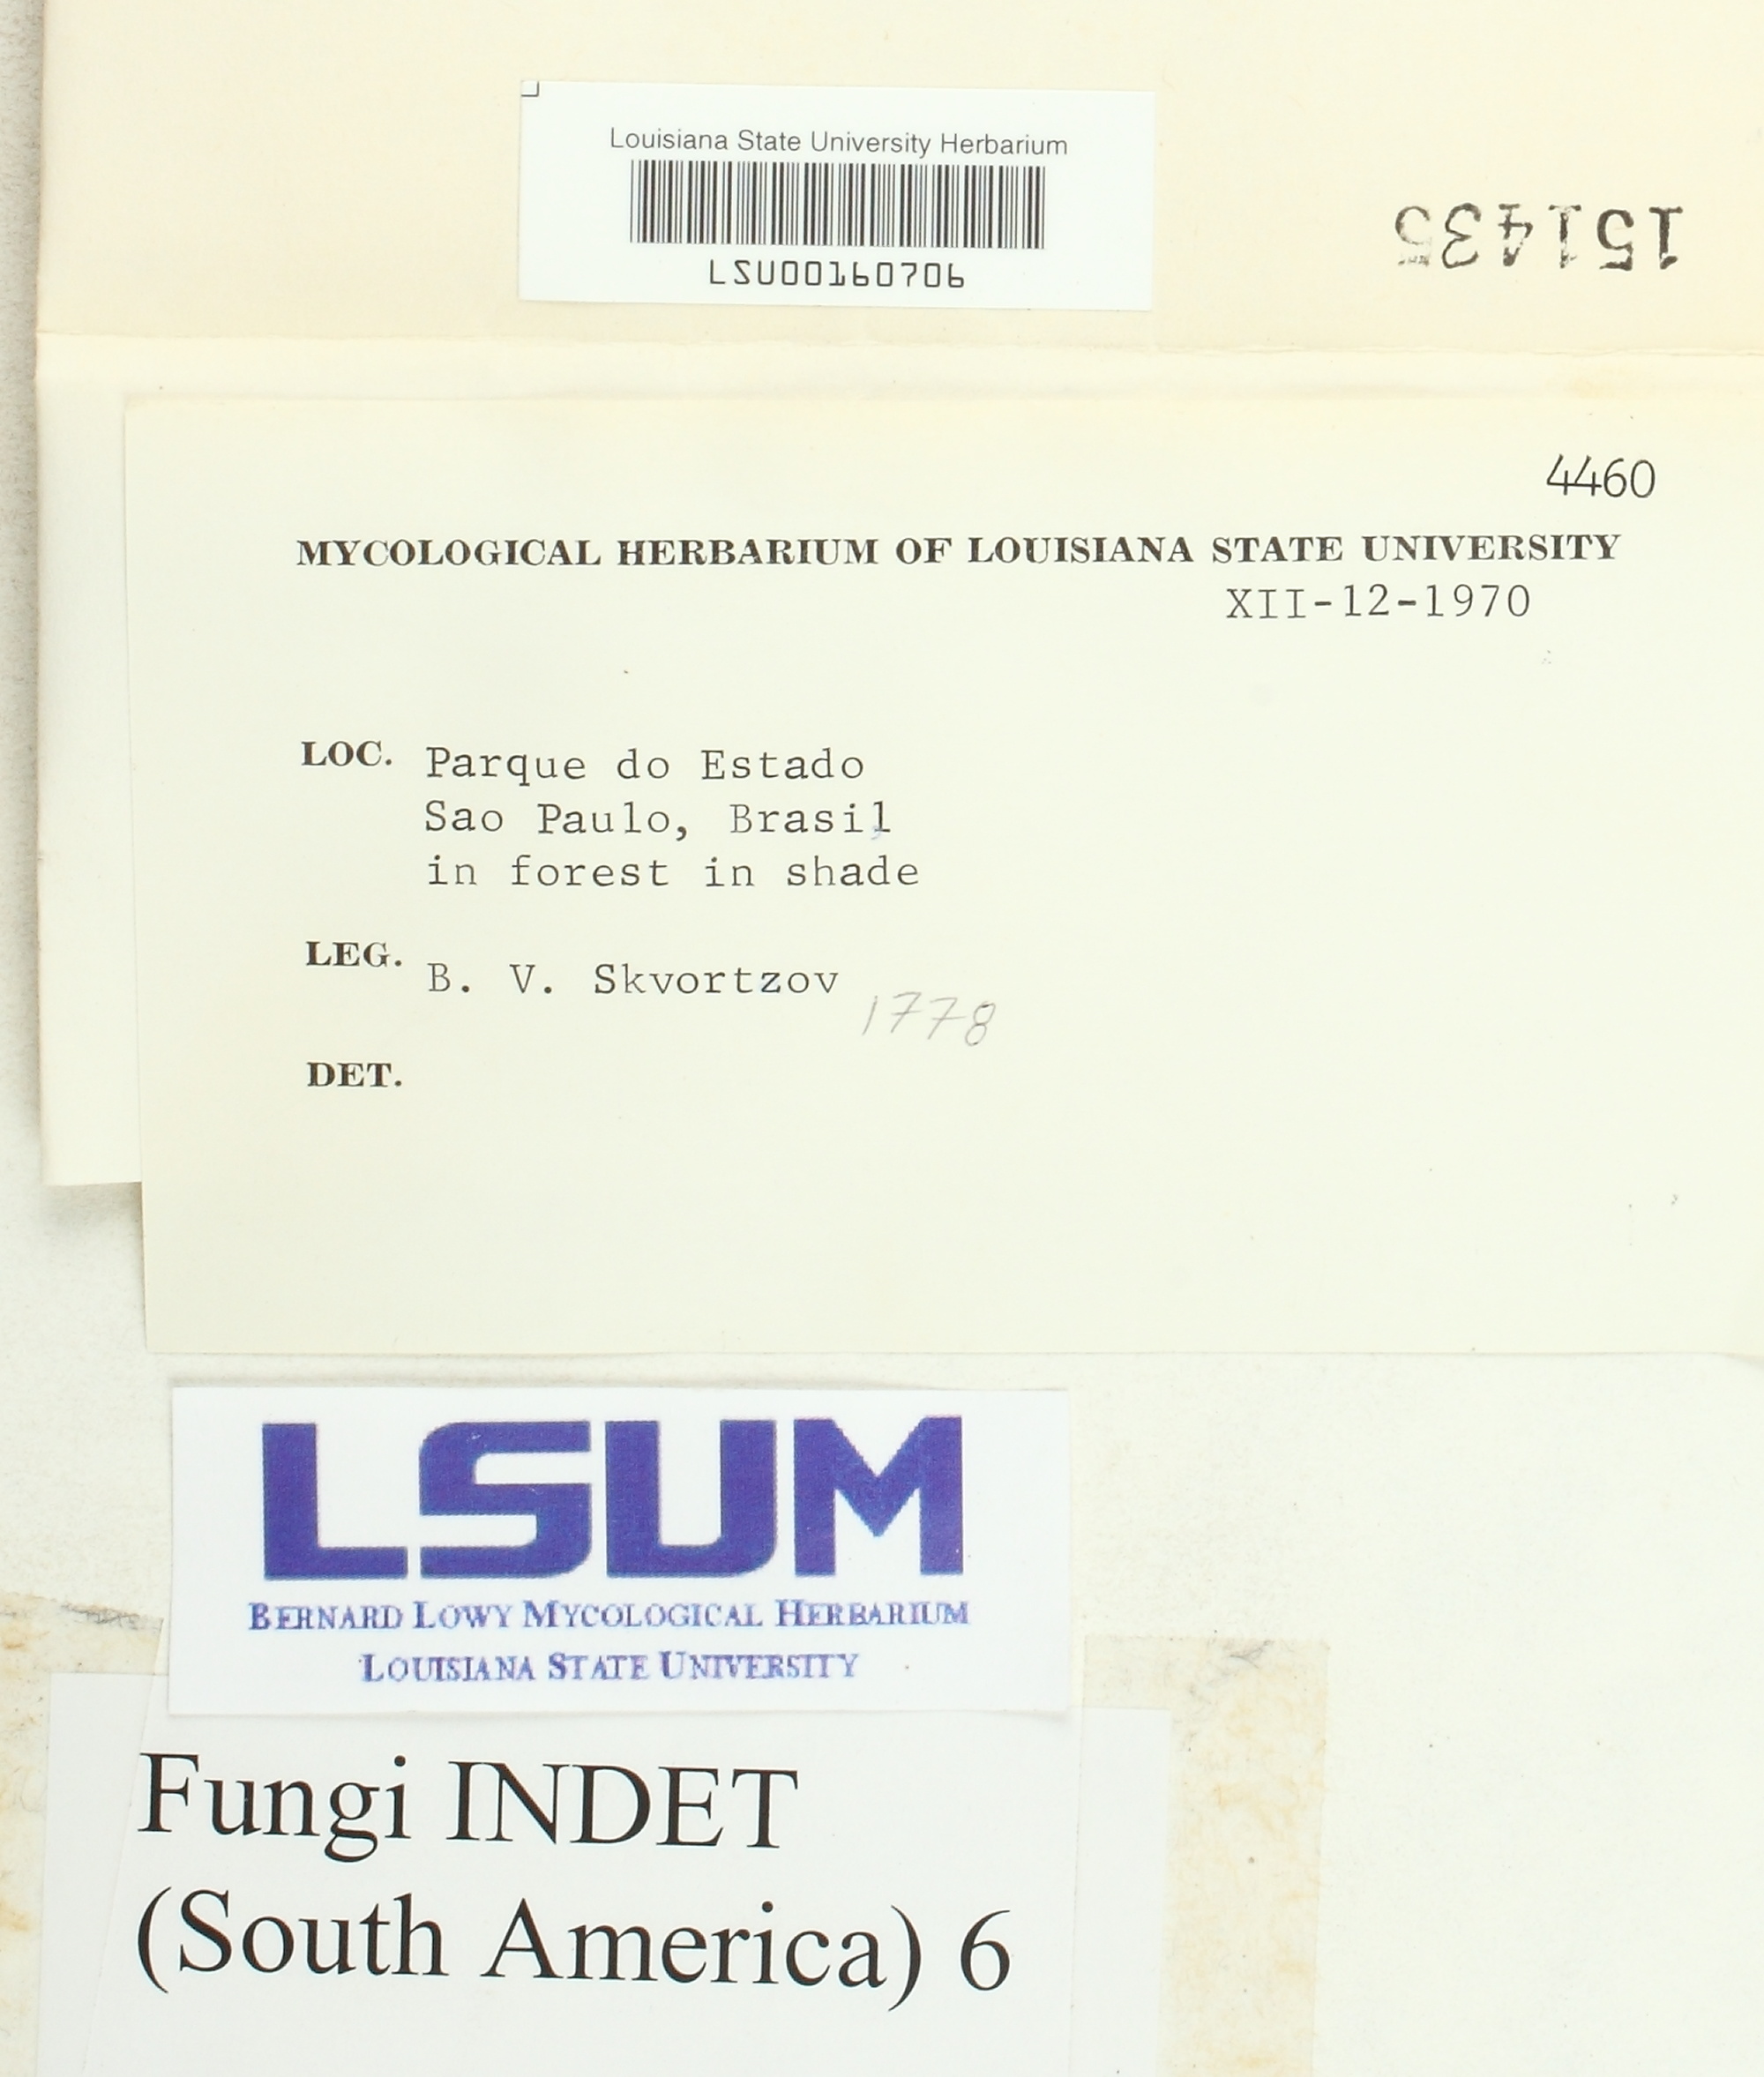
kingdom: Fungi
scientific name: Fungi
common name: Fungi
